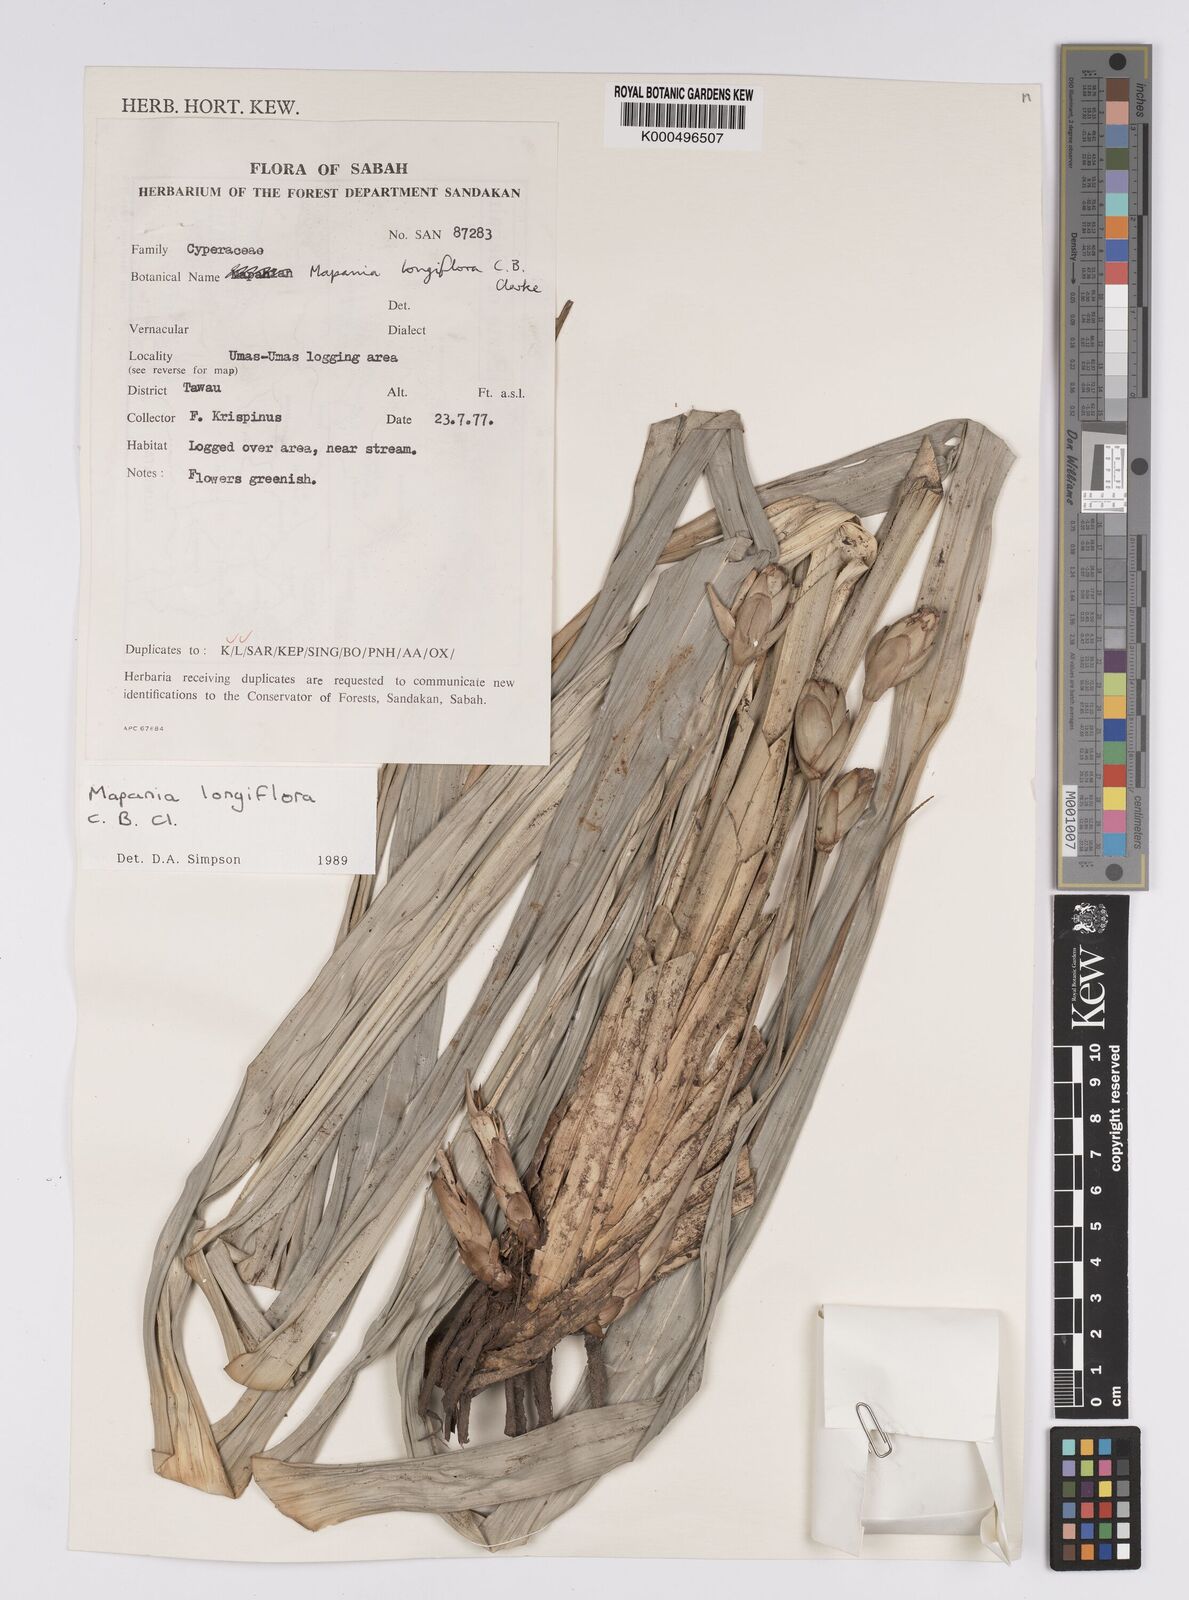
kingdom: Plantae
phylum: Tracheophyta
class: Liliopsida
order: Poales
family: Cyperaceae
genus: Mapania
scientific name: Mapania longiflora
